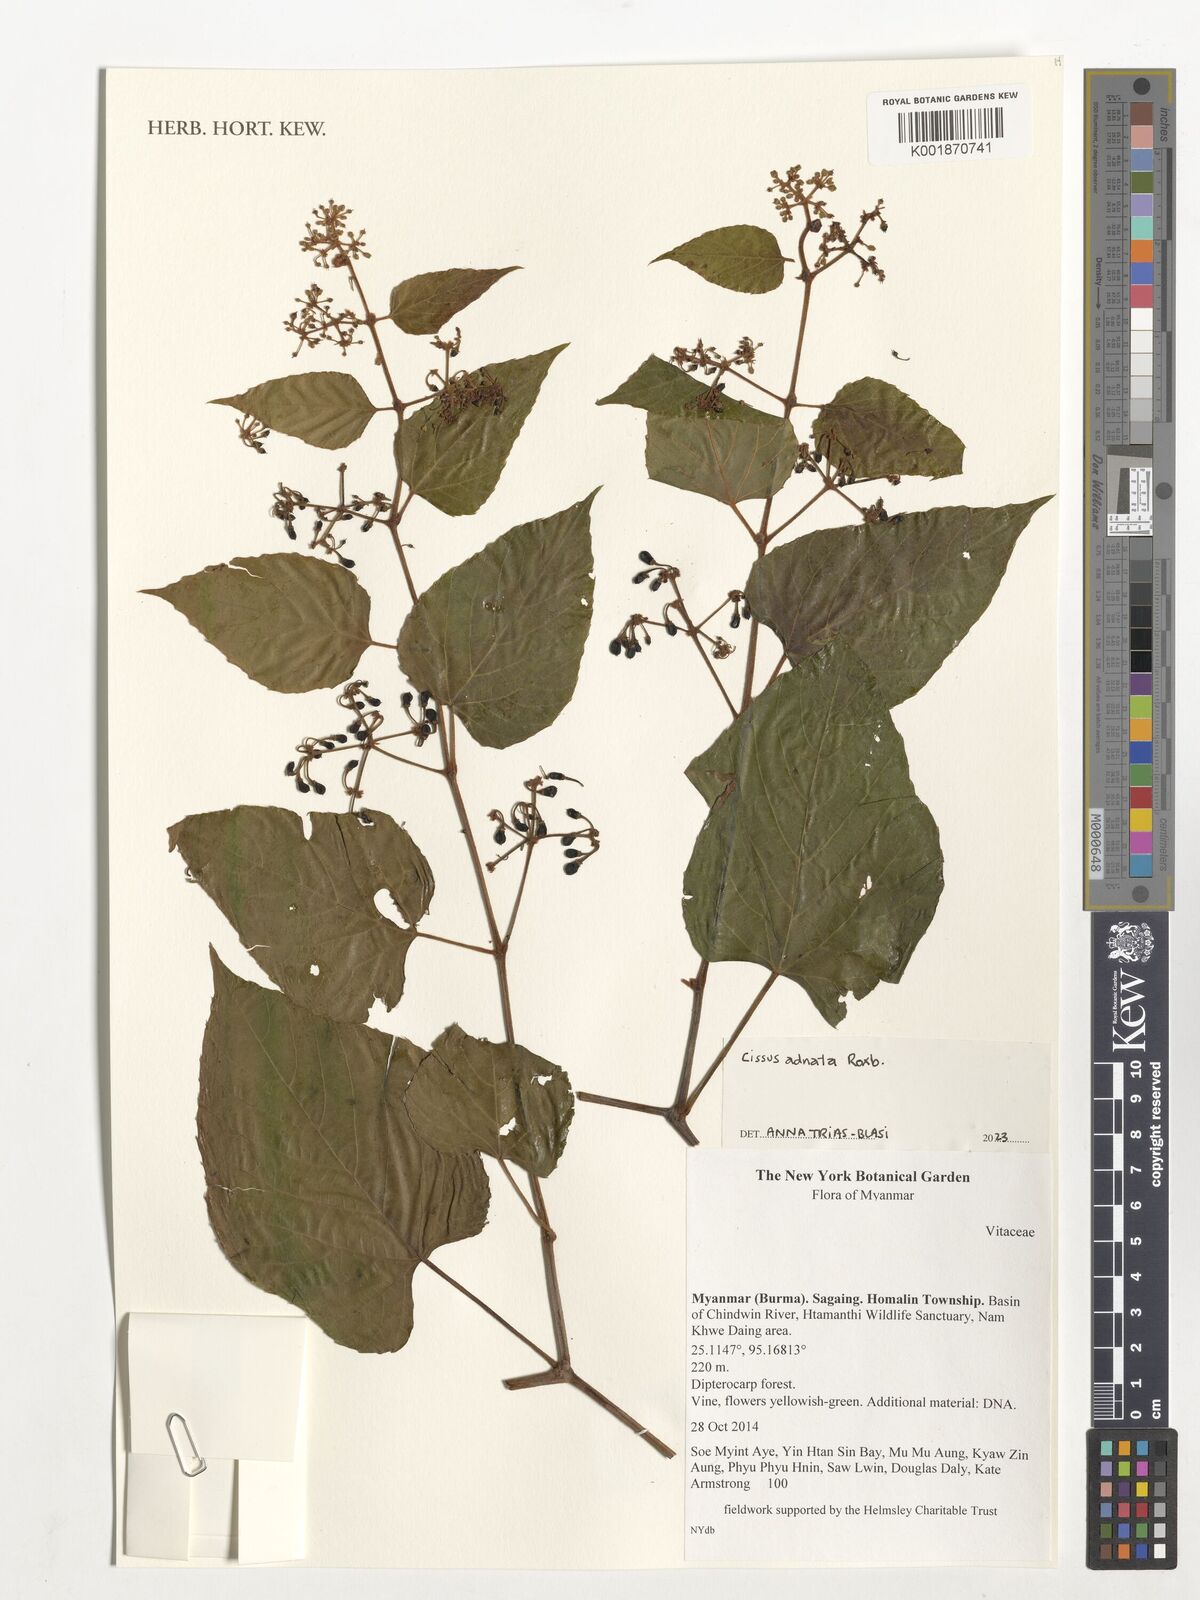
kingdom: Plantae
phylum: Tracheophyta
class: Magnoliopsida
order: Vitales
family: Vitaceae
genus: Cissus
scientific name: Cissus adnata
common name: Heart-leaf-grape
